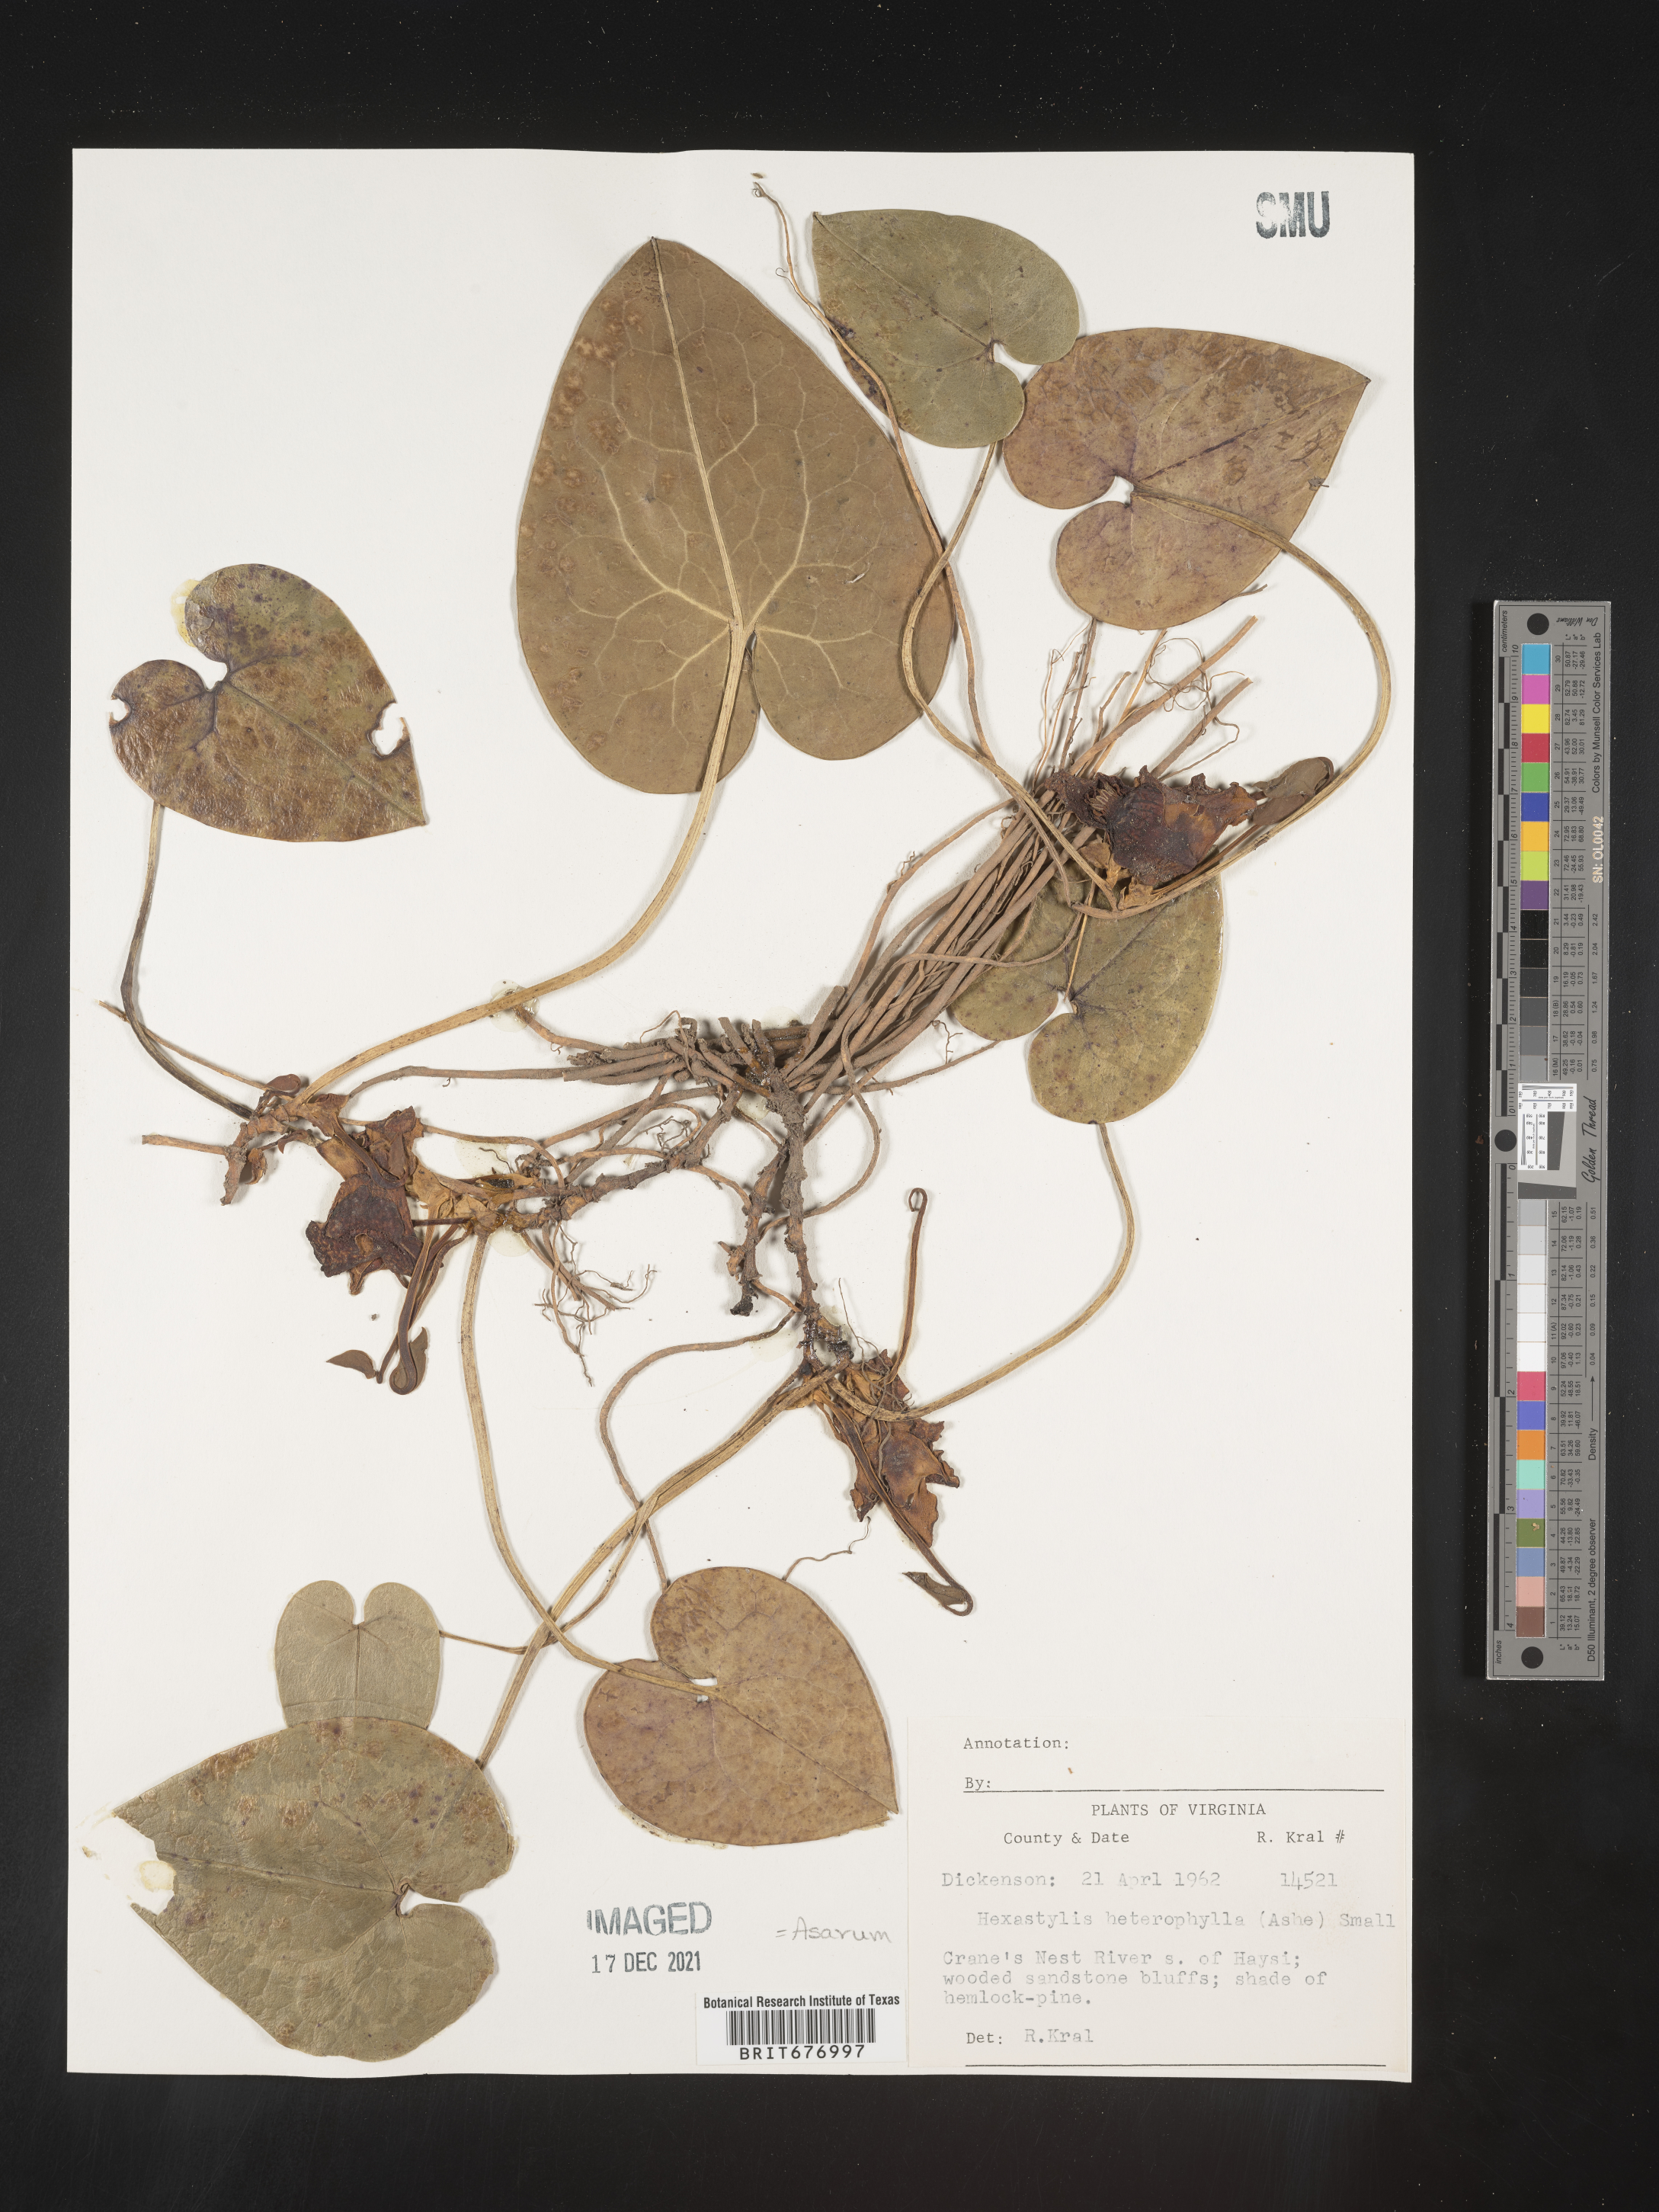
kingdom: Plantae
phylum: Tracheophyta
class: Magnoliopsida
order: Piperales
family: Aristolochiaceae
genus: Asarum
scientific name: Asarum
